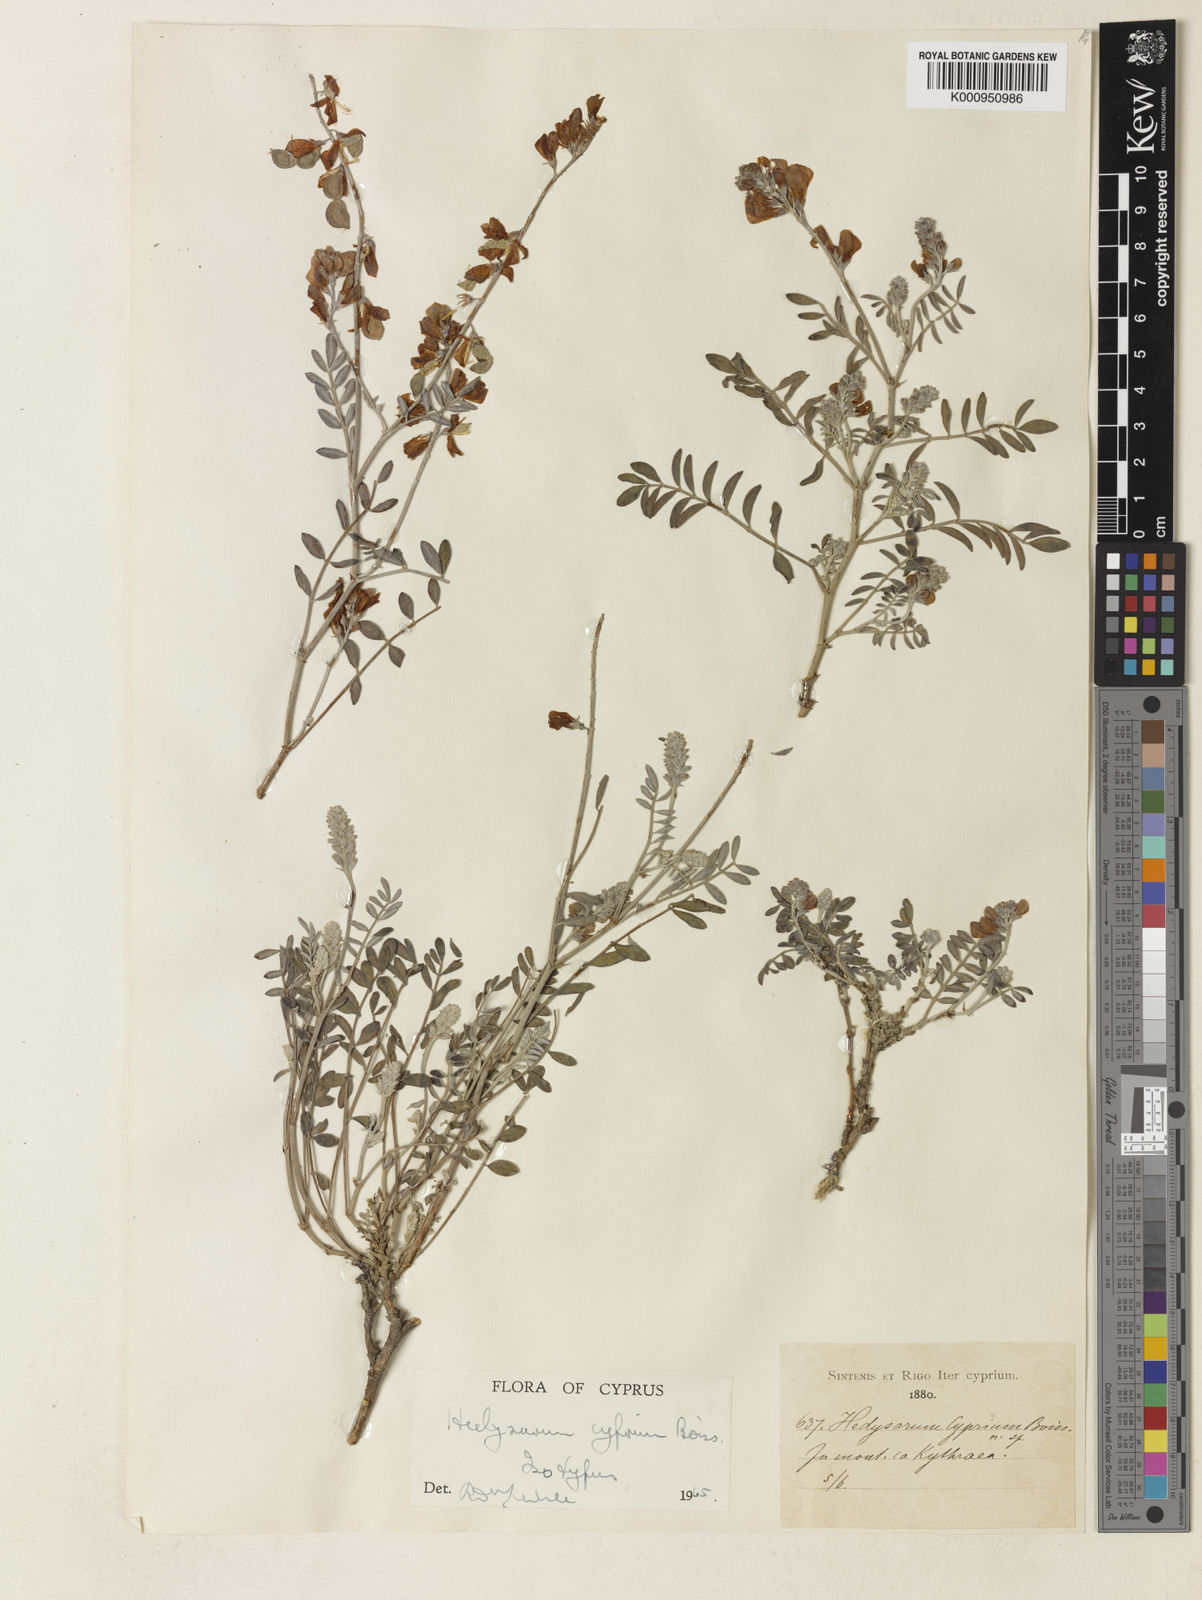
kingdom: Plantae
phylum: Tracheophyta
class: Magnoliopsida
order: Fabales
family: Fabaceae
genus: Hedysarum
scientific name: Hedysarum cyprium
